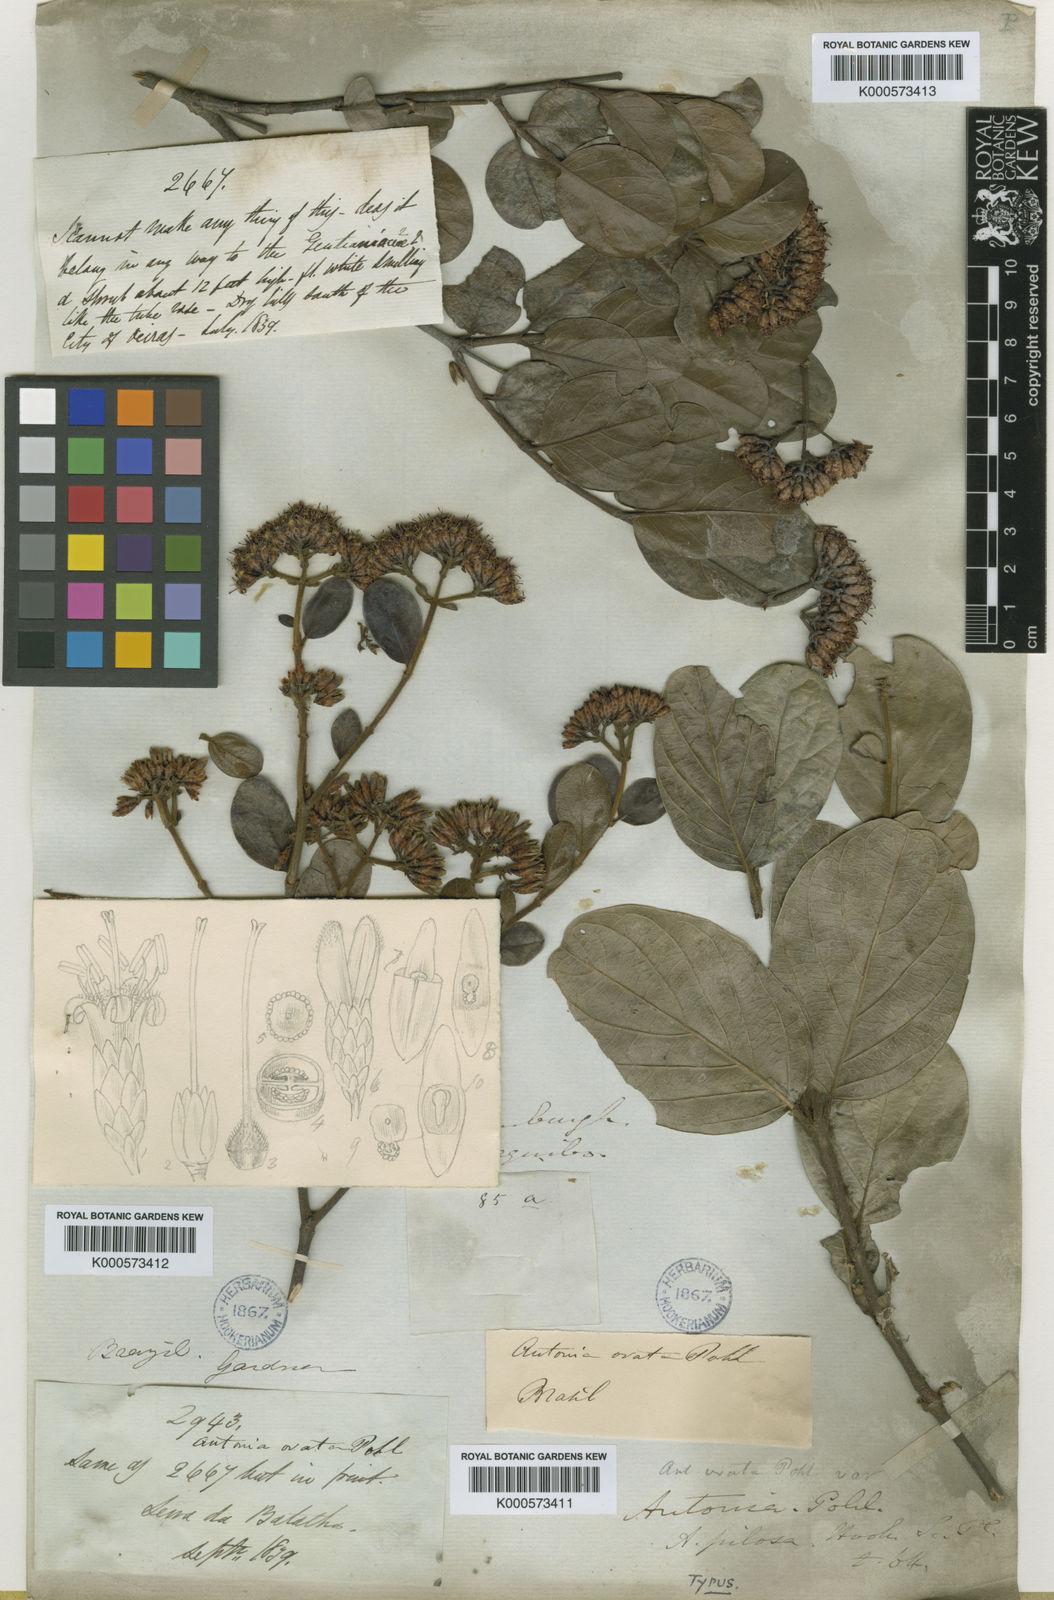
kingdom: Plantae
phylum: Tracheophyta
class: Magnoliopsida
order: Gentianales
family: Loganiaceae
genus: Antonia
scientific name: Antonia ovata
